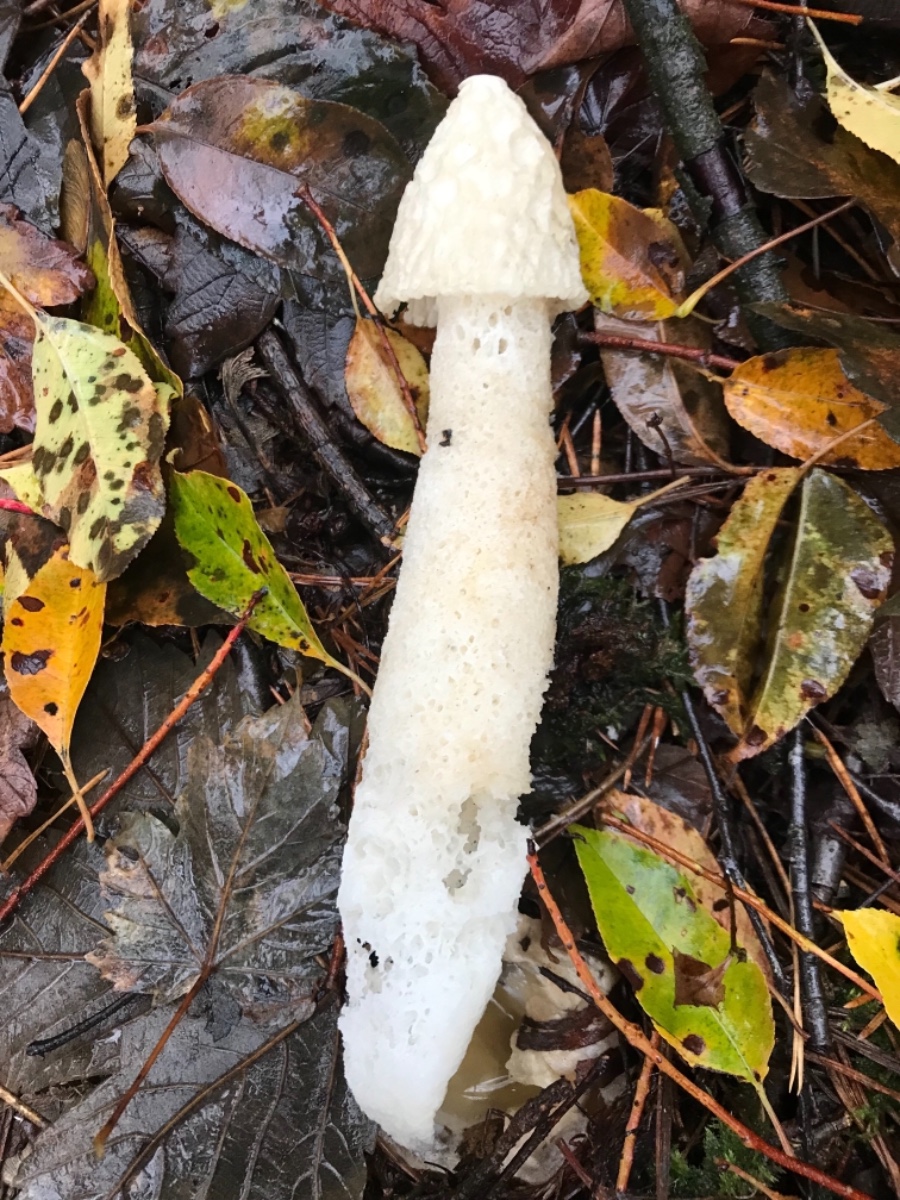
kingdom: Fungi
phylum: Basidiomycota
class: Agaricomycetes
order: Phallales
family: Phallaceae
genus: Phallus
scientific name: Phallus impudicus
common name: almindelig stinksvamp
